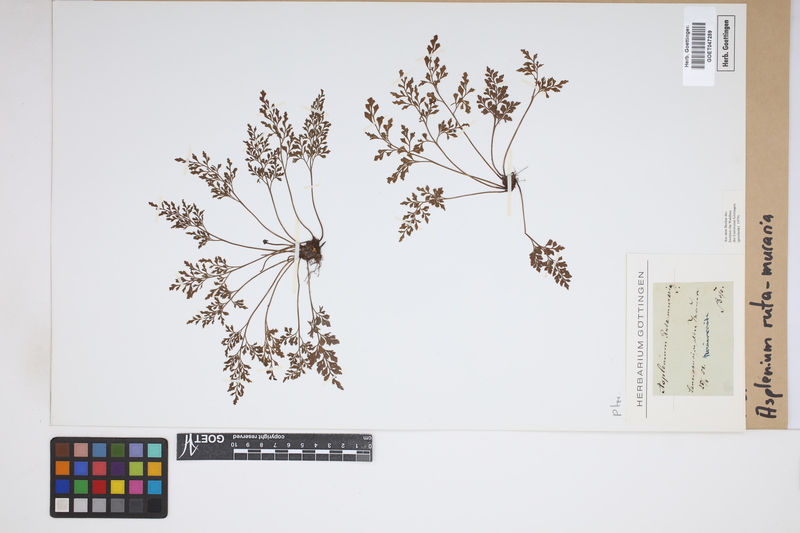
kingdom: Plantae
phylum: Tracheophyta
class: Polypodiopsida
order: Polypodiales
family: Aspleniaceae
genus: Asplenium
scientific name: Asplenium ruta-muraria
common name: Wall-rue
